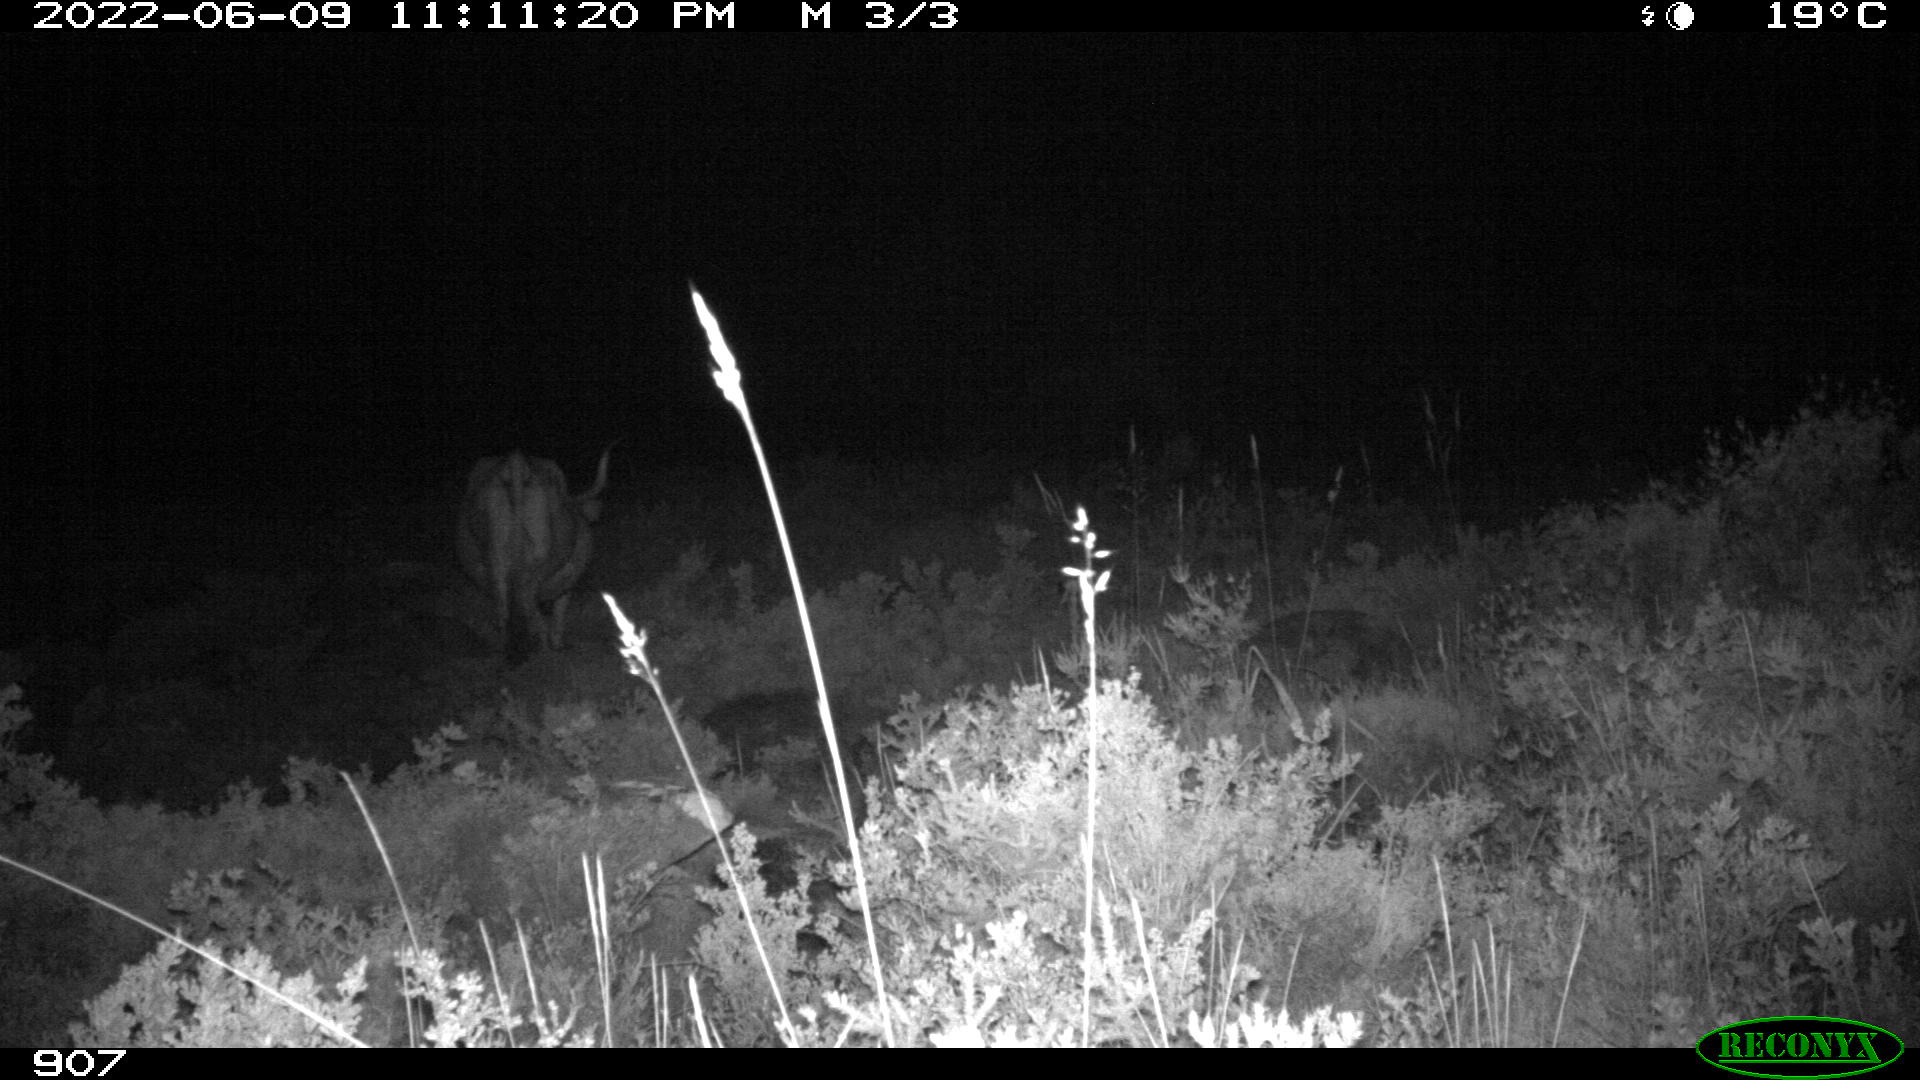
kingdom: Animalia
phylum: Chordata
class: Mammalia
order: Artiodactyla
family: Bovidae
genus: Bos
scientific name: Bos taurus
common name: Domesticated cattle
